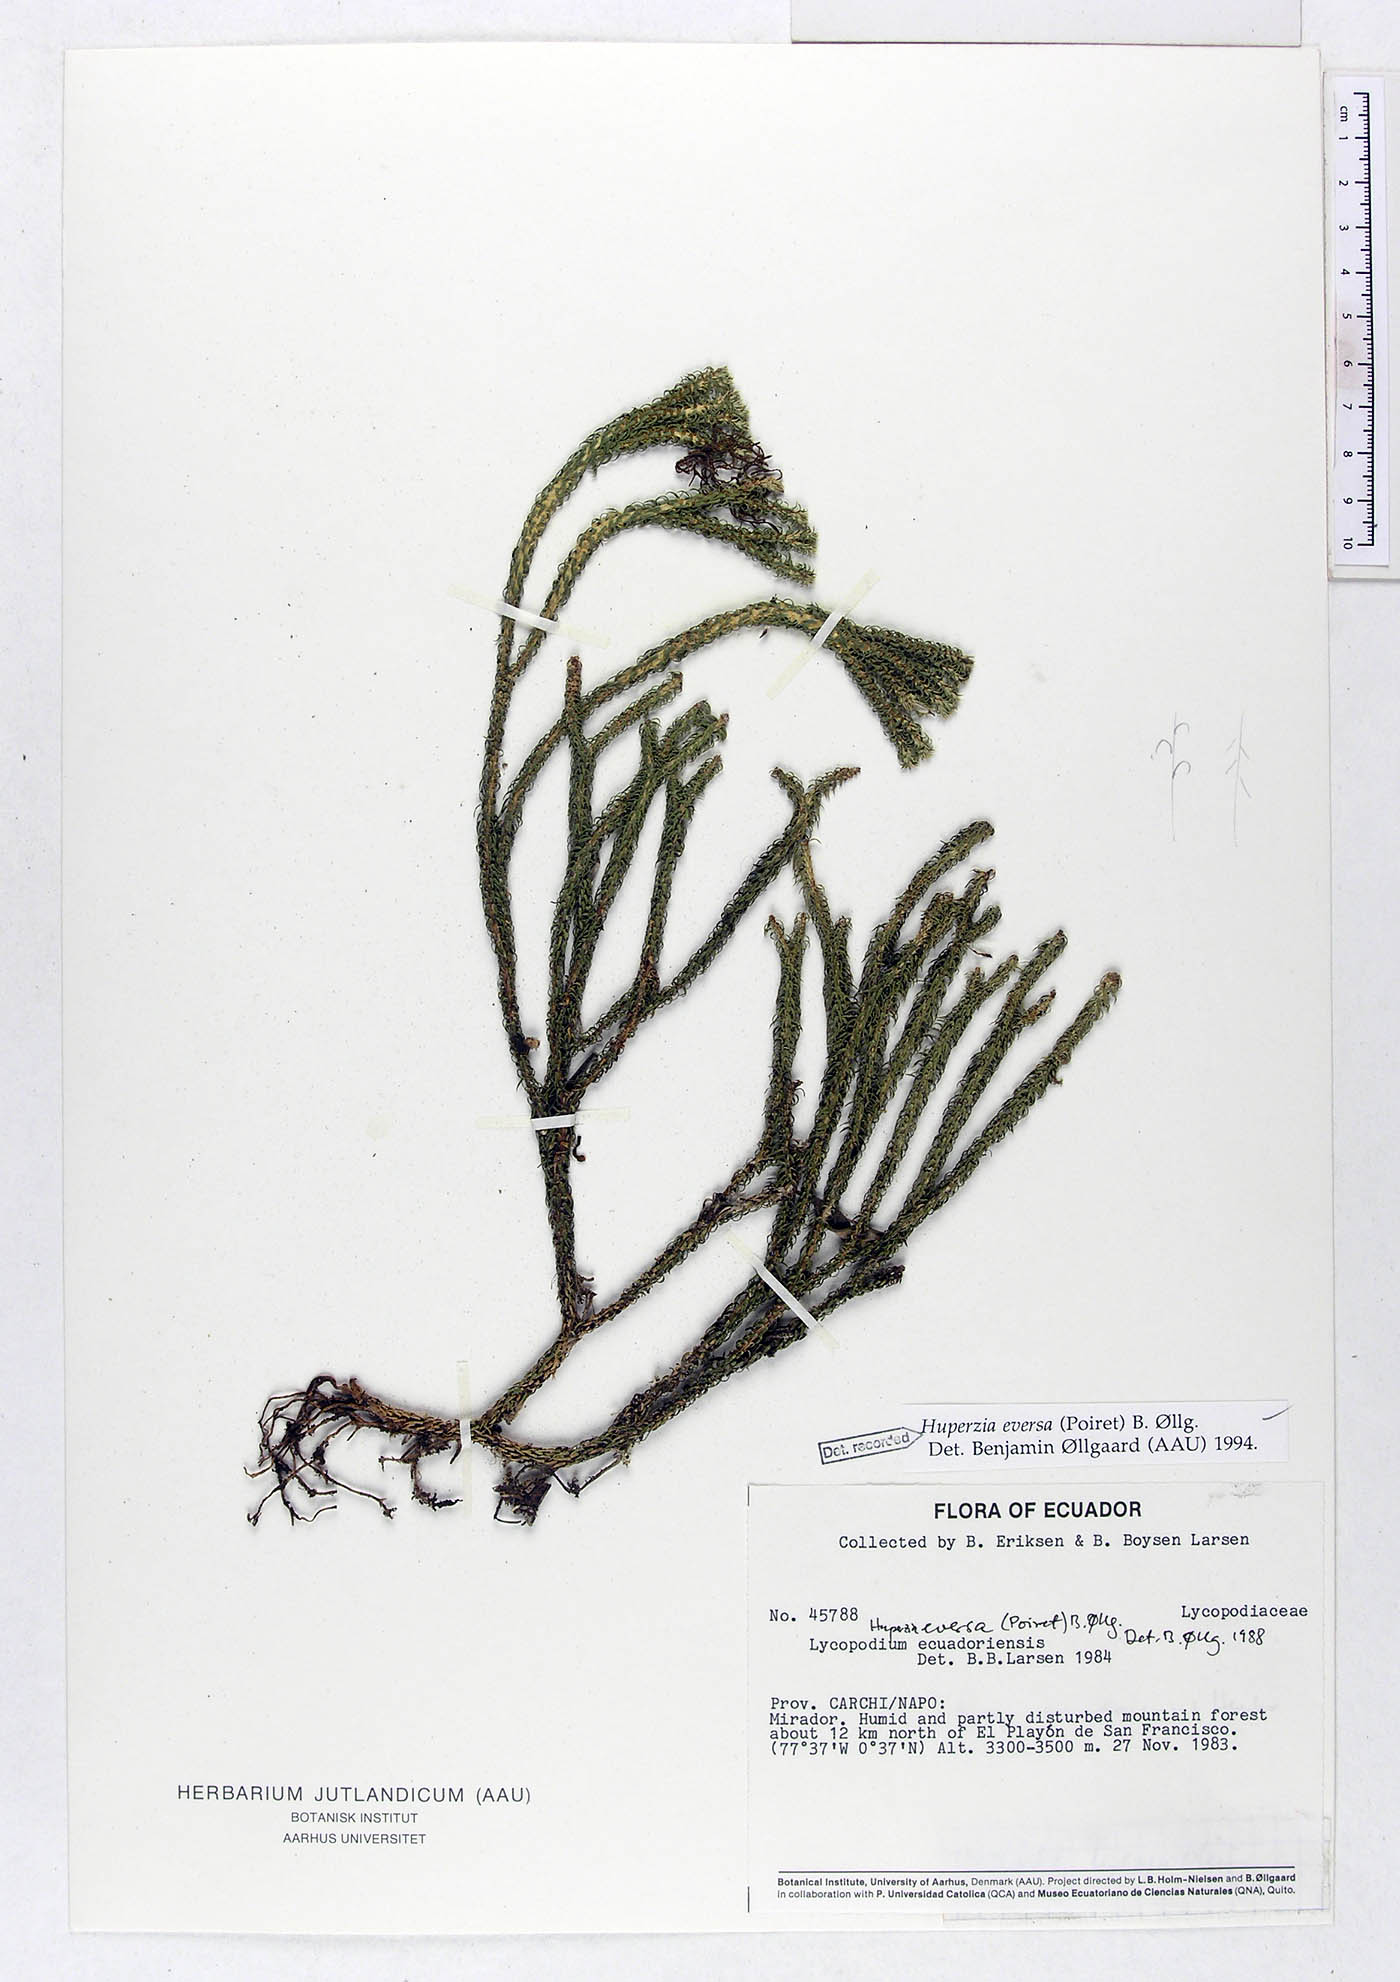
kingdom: Plantae
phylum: Tracheophyta
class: Lycopodiopsida
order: Lycopodiales
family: Lycopodiaceae
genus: Phlegmariurus
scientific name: Phlegmariurus eversus
